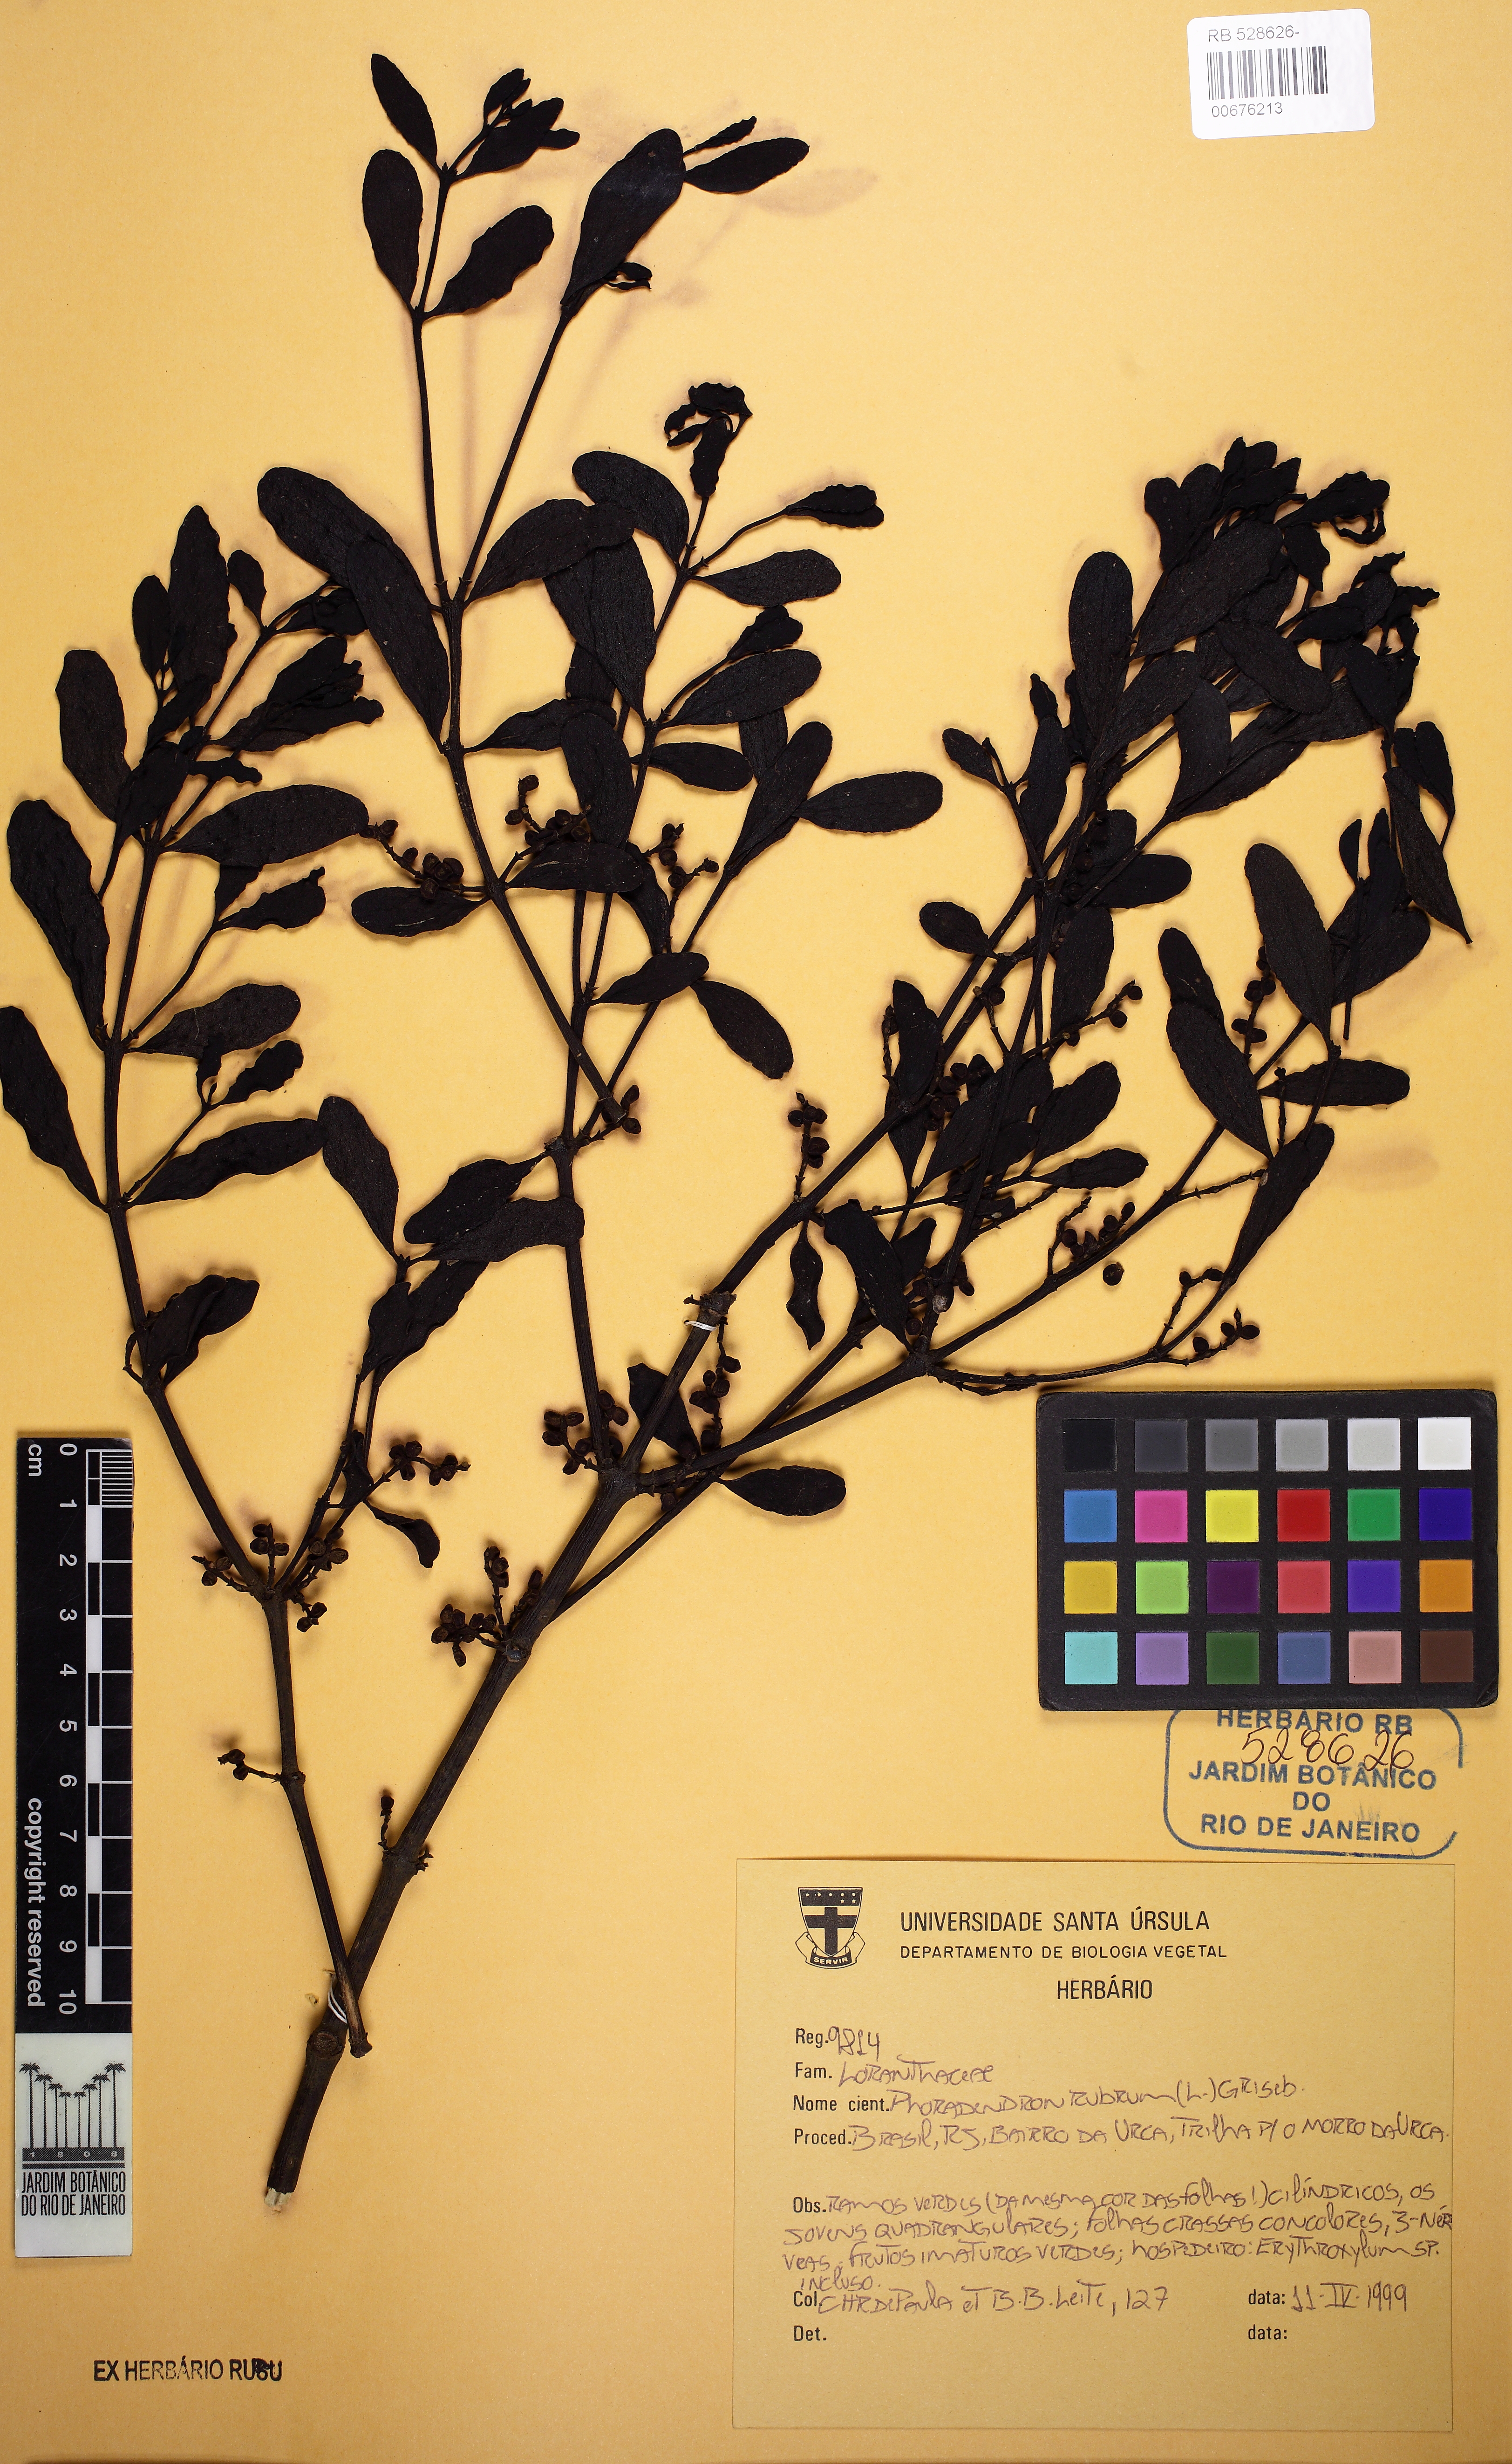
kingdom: Plantae
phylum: Tracheophyta
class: Magnoliopsida
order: Santalales
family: Viscaceae
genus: Phoradendron
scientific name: Phoradendron rubrum
